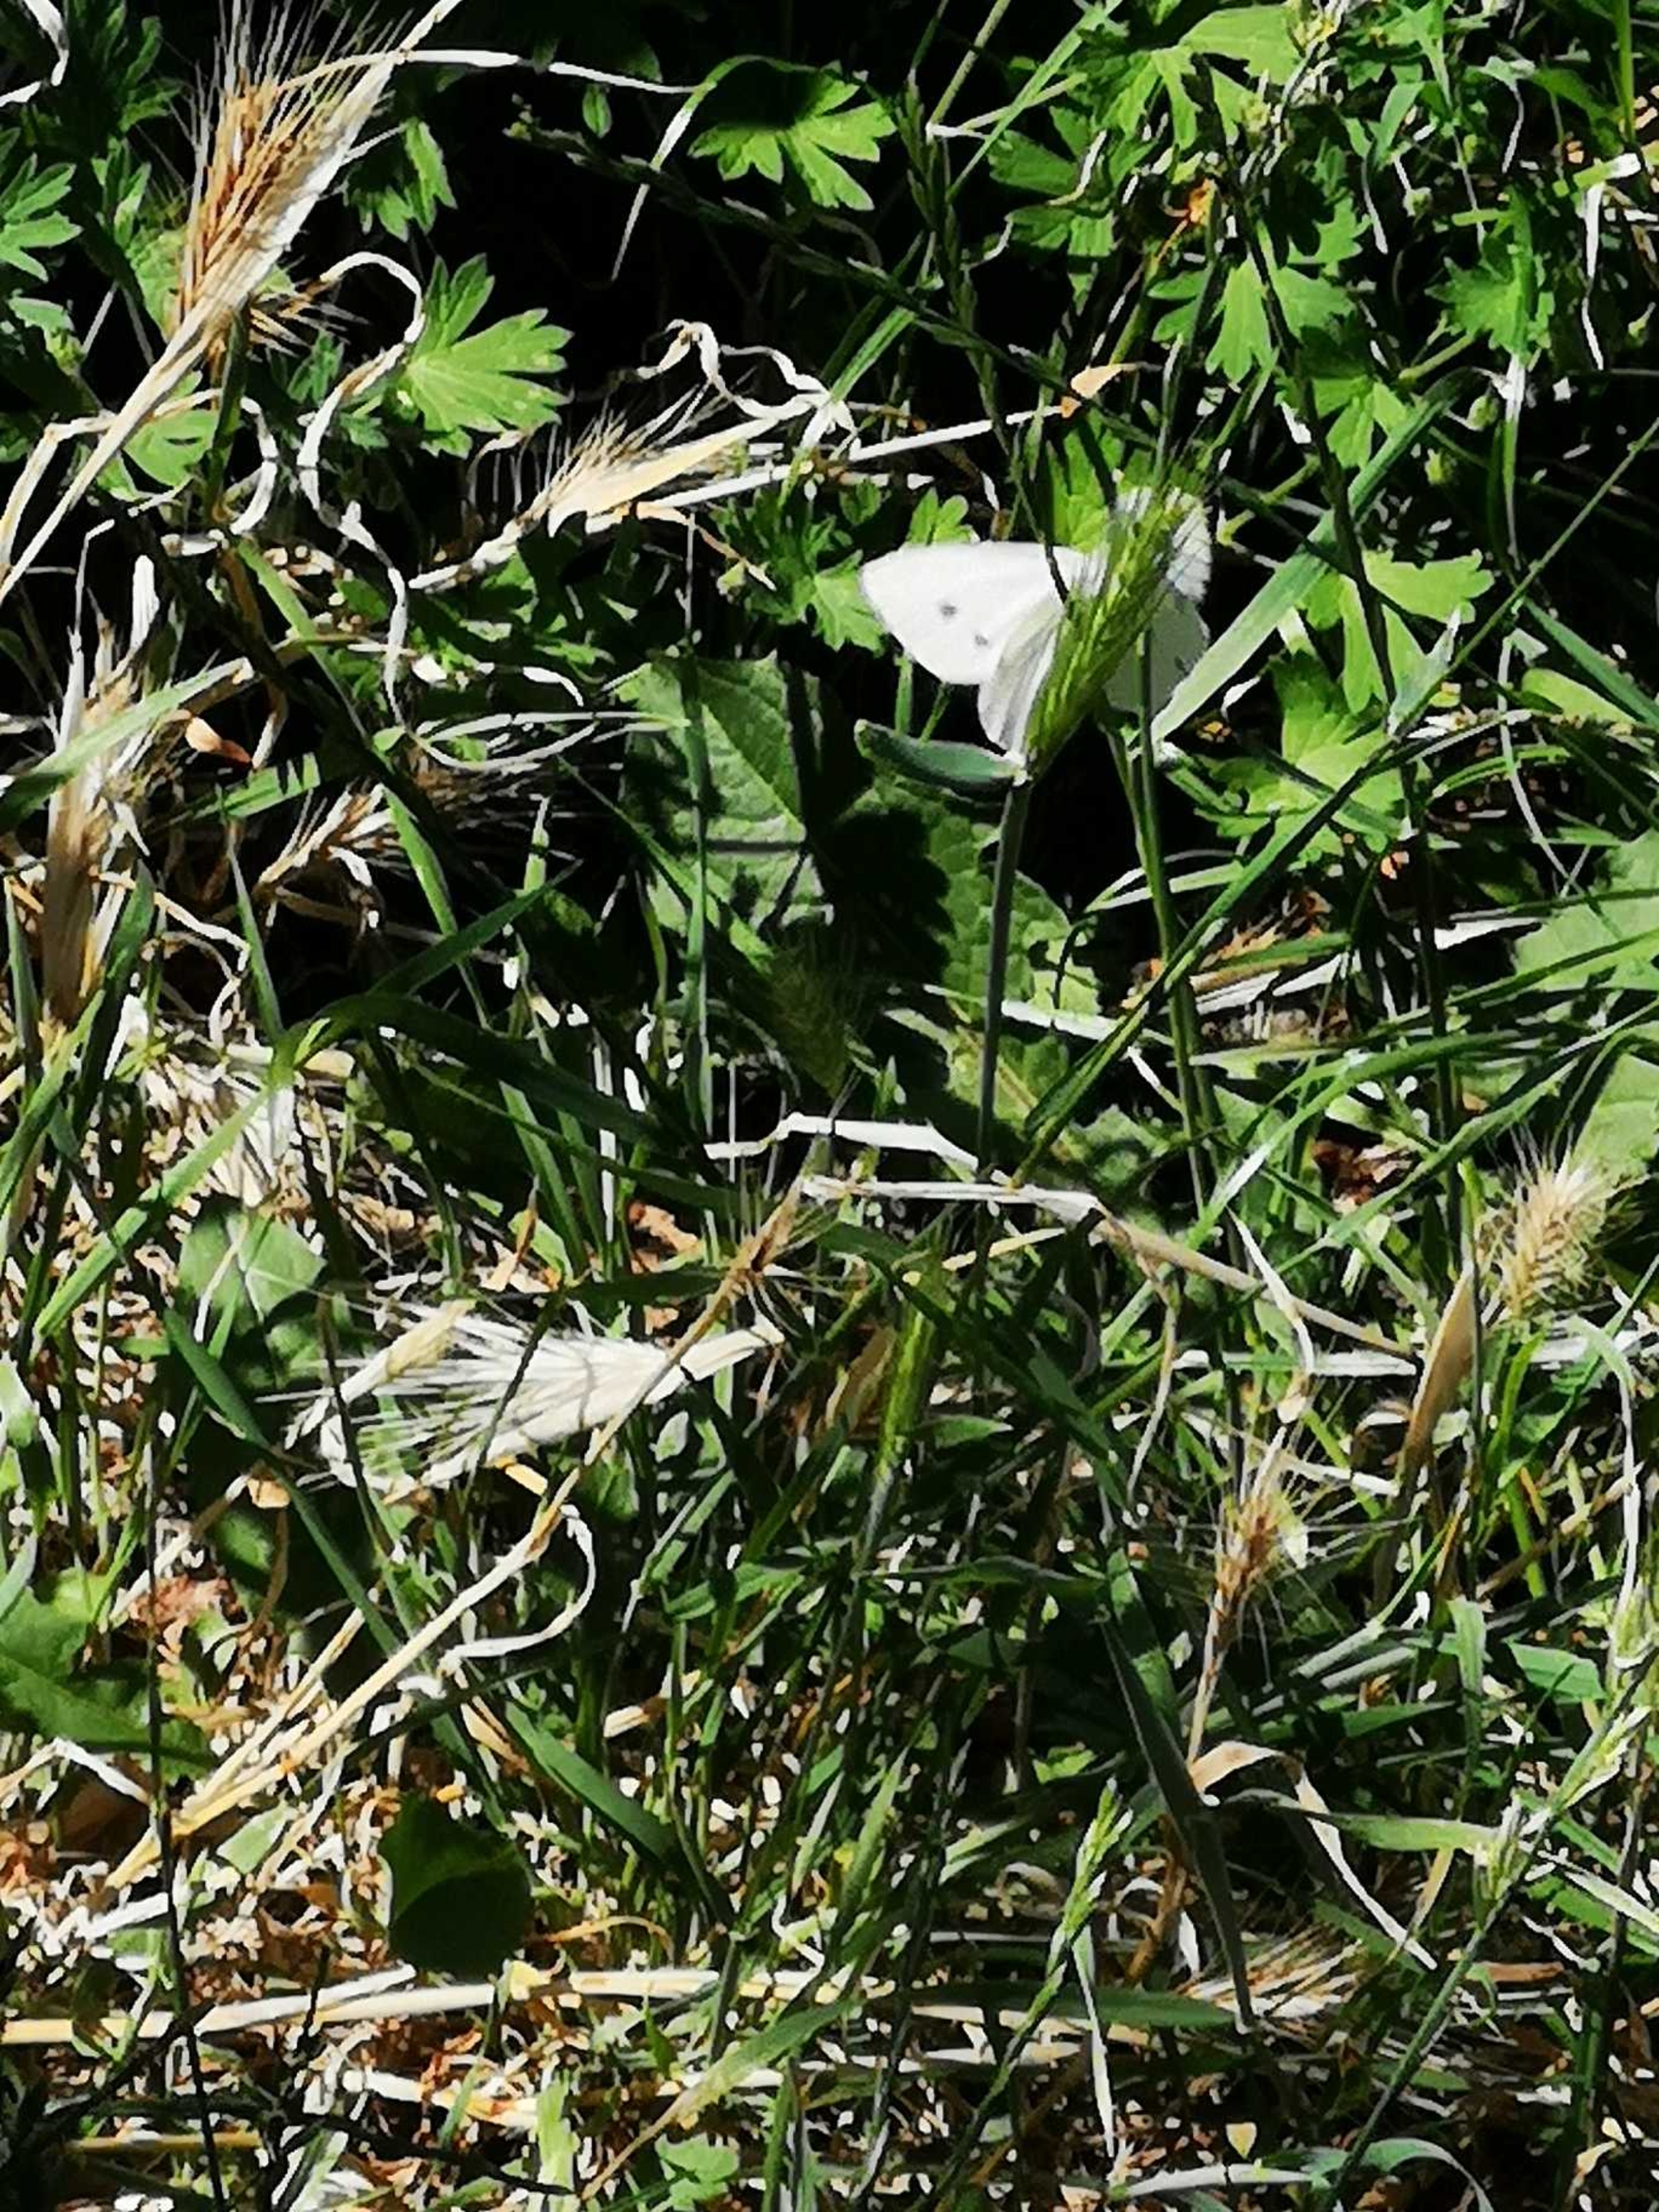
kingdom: Animalia
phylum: Arthropoda
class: Insecta
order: Lepidoptera
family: Pieridae
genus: Pieris
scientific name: Pieris rapae
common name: Lille kålsommerfugl
